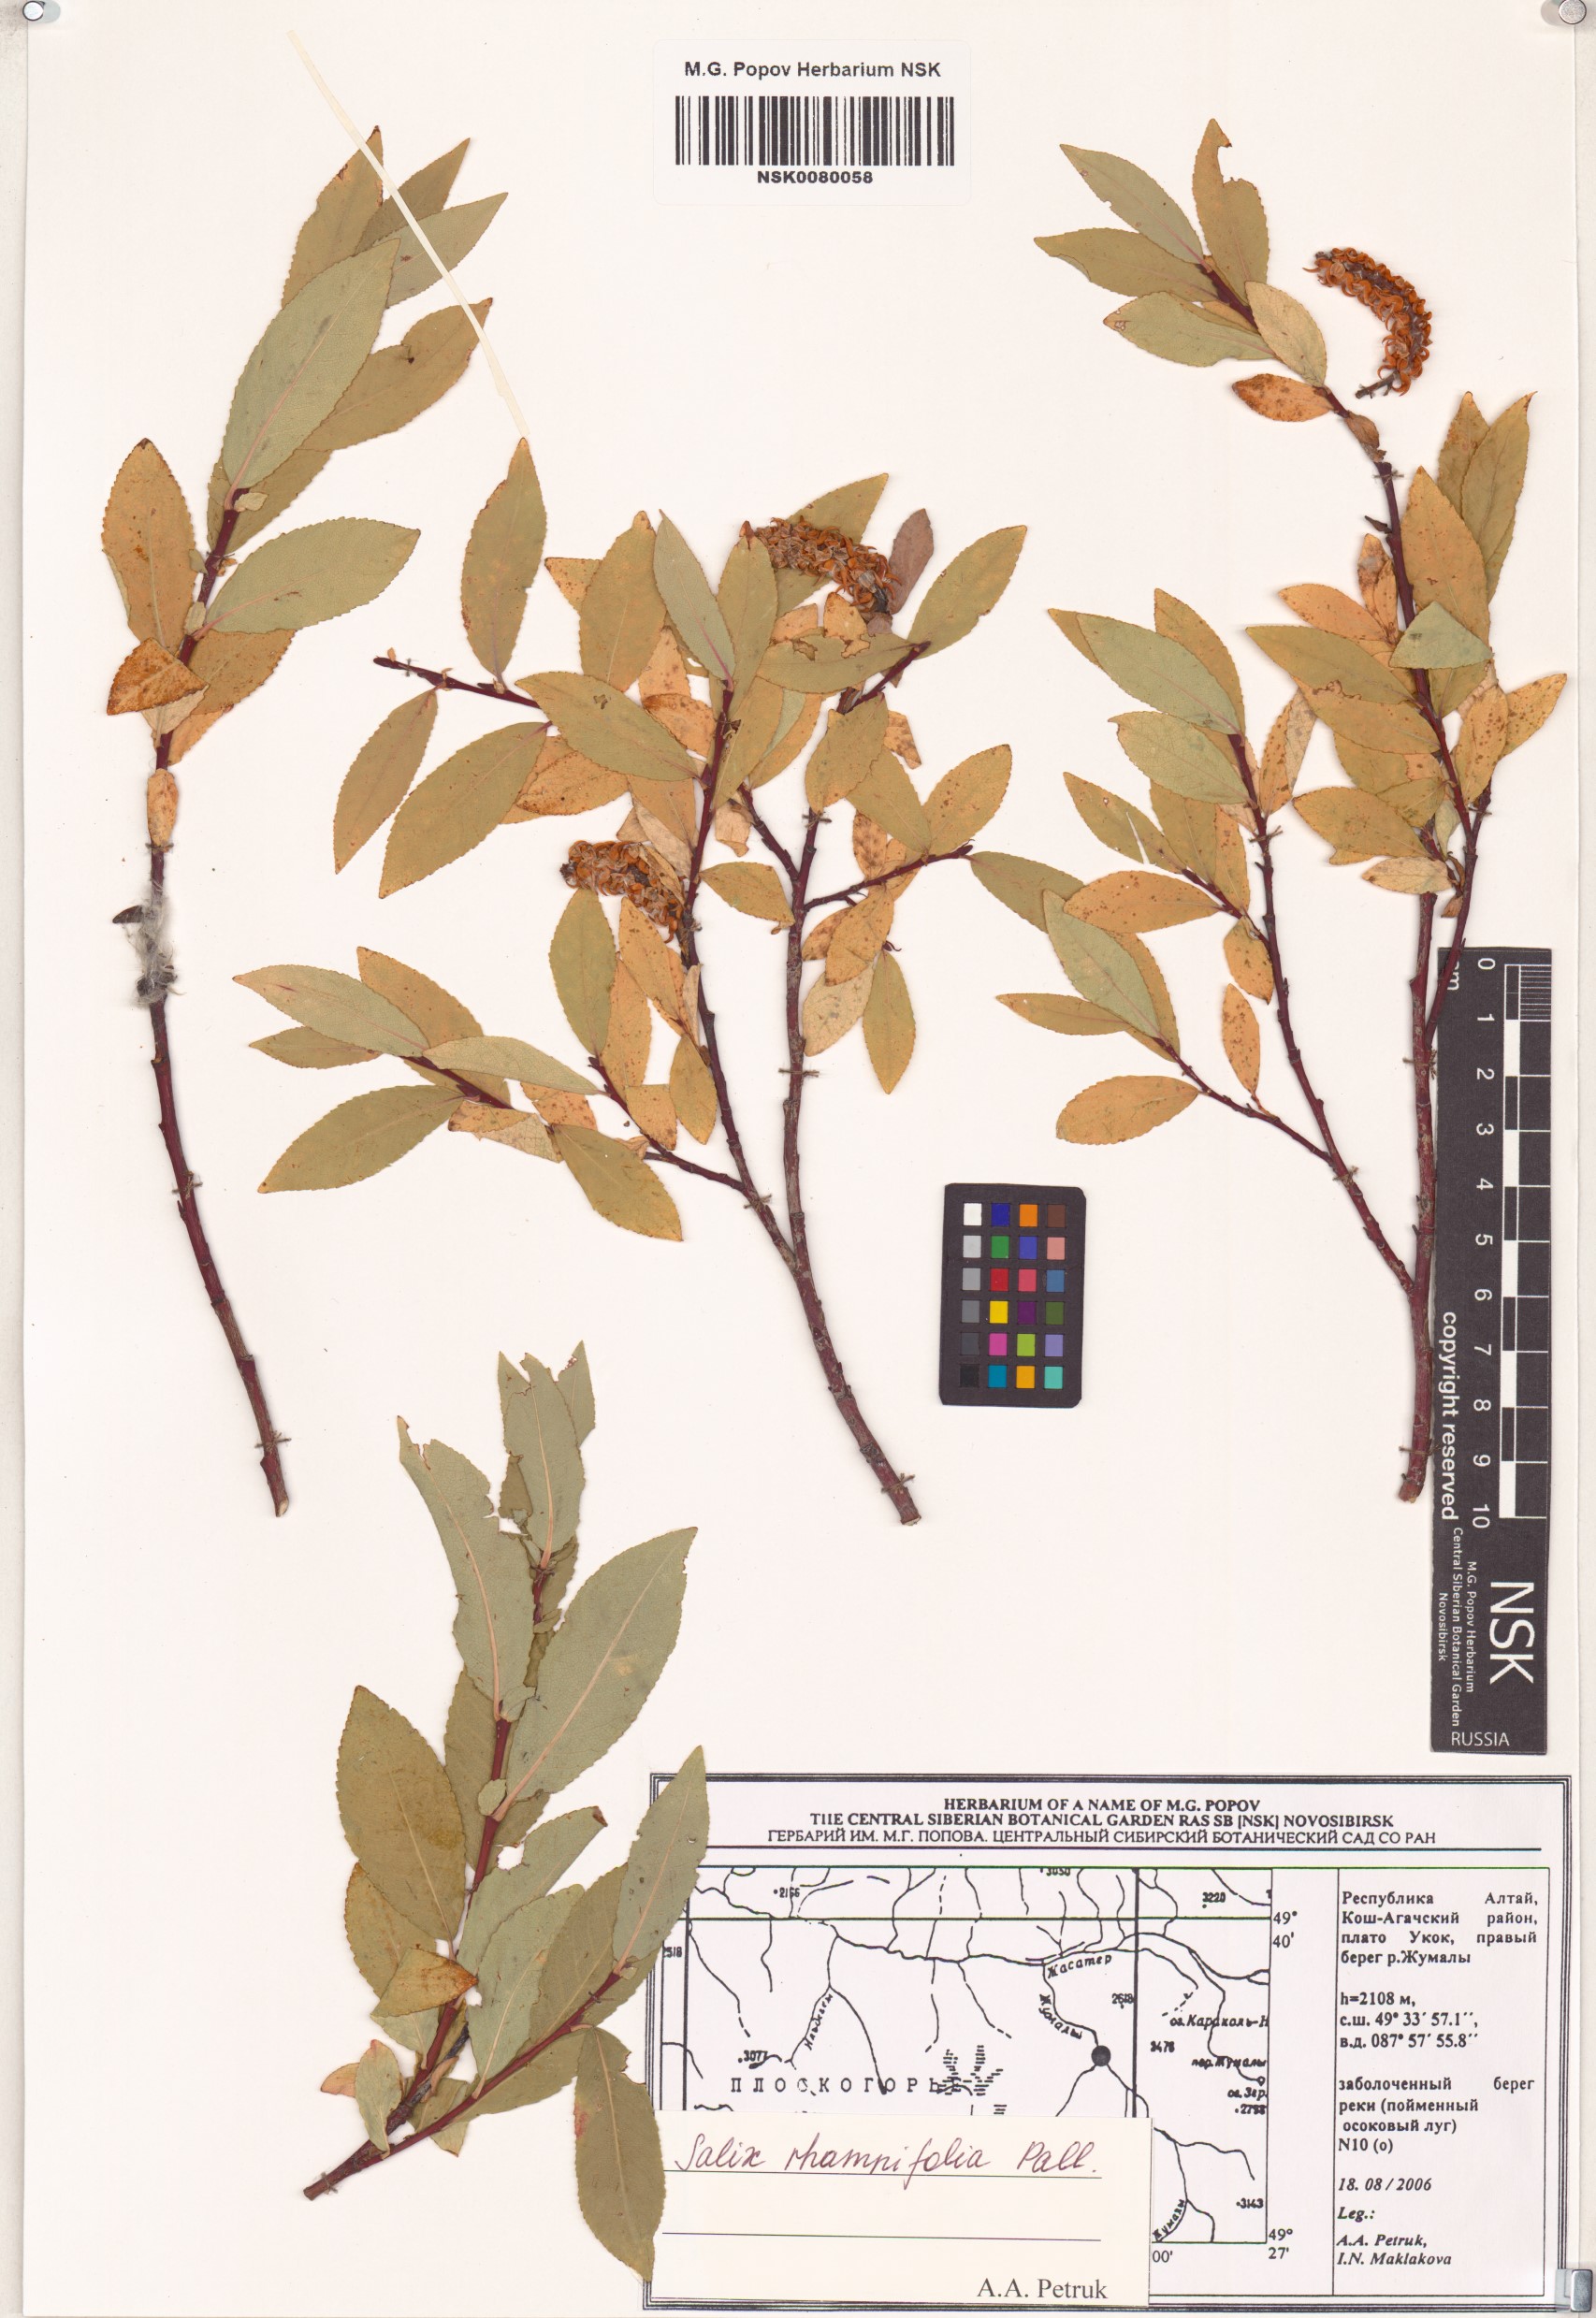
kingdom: Plantae
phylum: Tracheophyta
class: Magnoliopsida
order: Malpighiales
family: Salicaceae
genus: Salix
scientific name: Salix rhamnifolia
